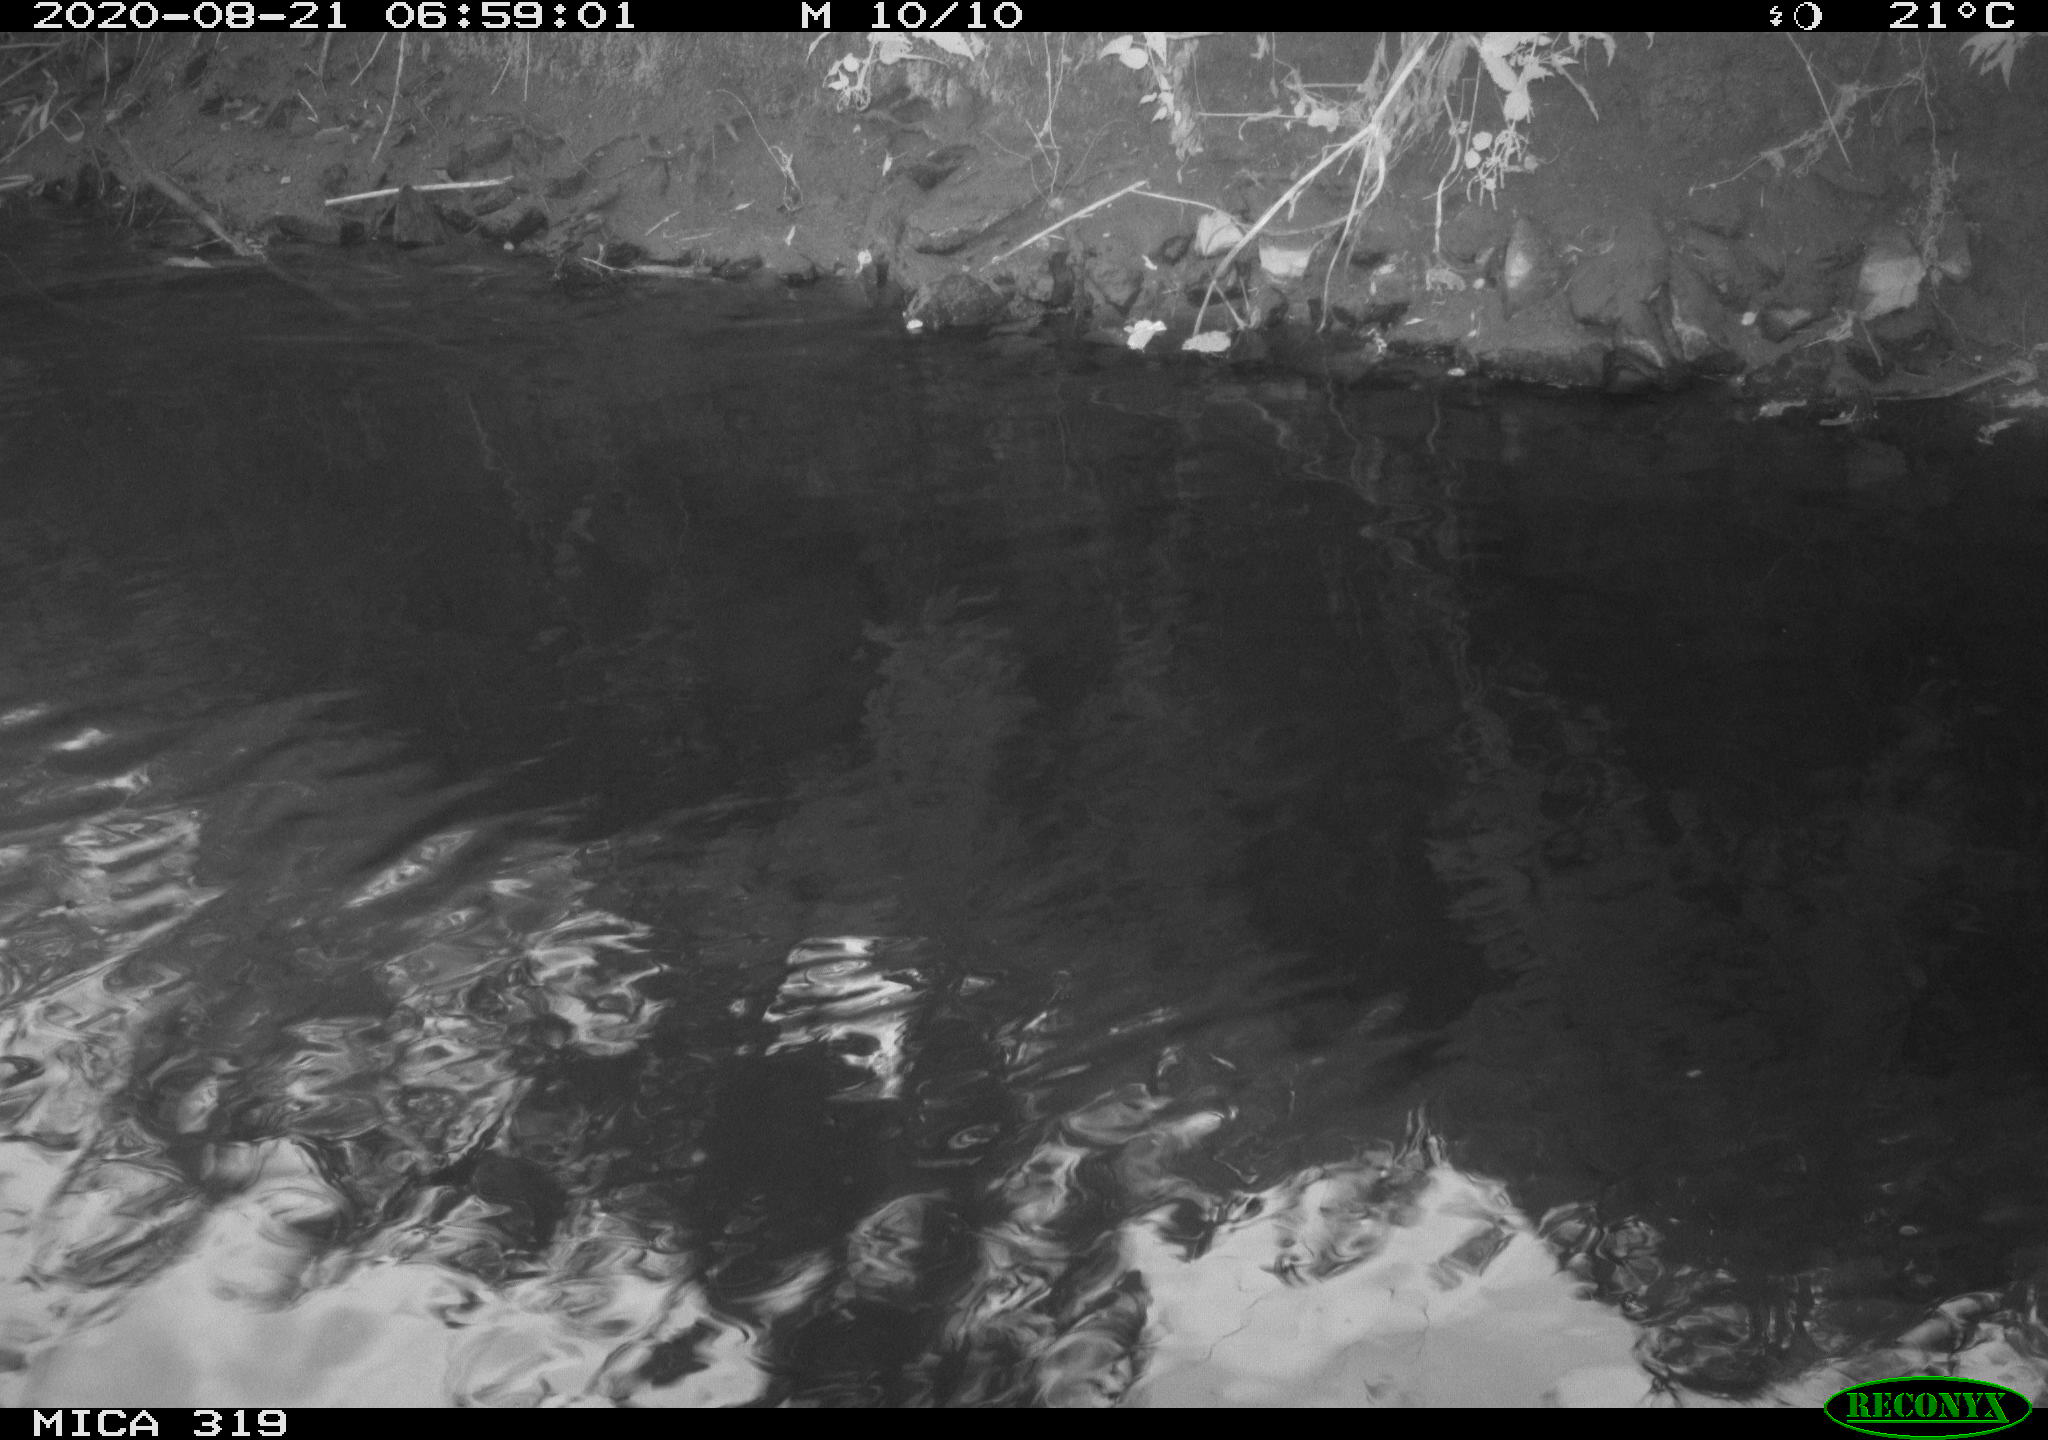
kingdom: Animalia
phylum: Chordata
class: Aves
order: Anseriformes
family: Anatidae
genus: Anas
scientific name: Anas platyrhynchos
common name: Mallard
